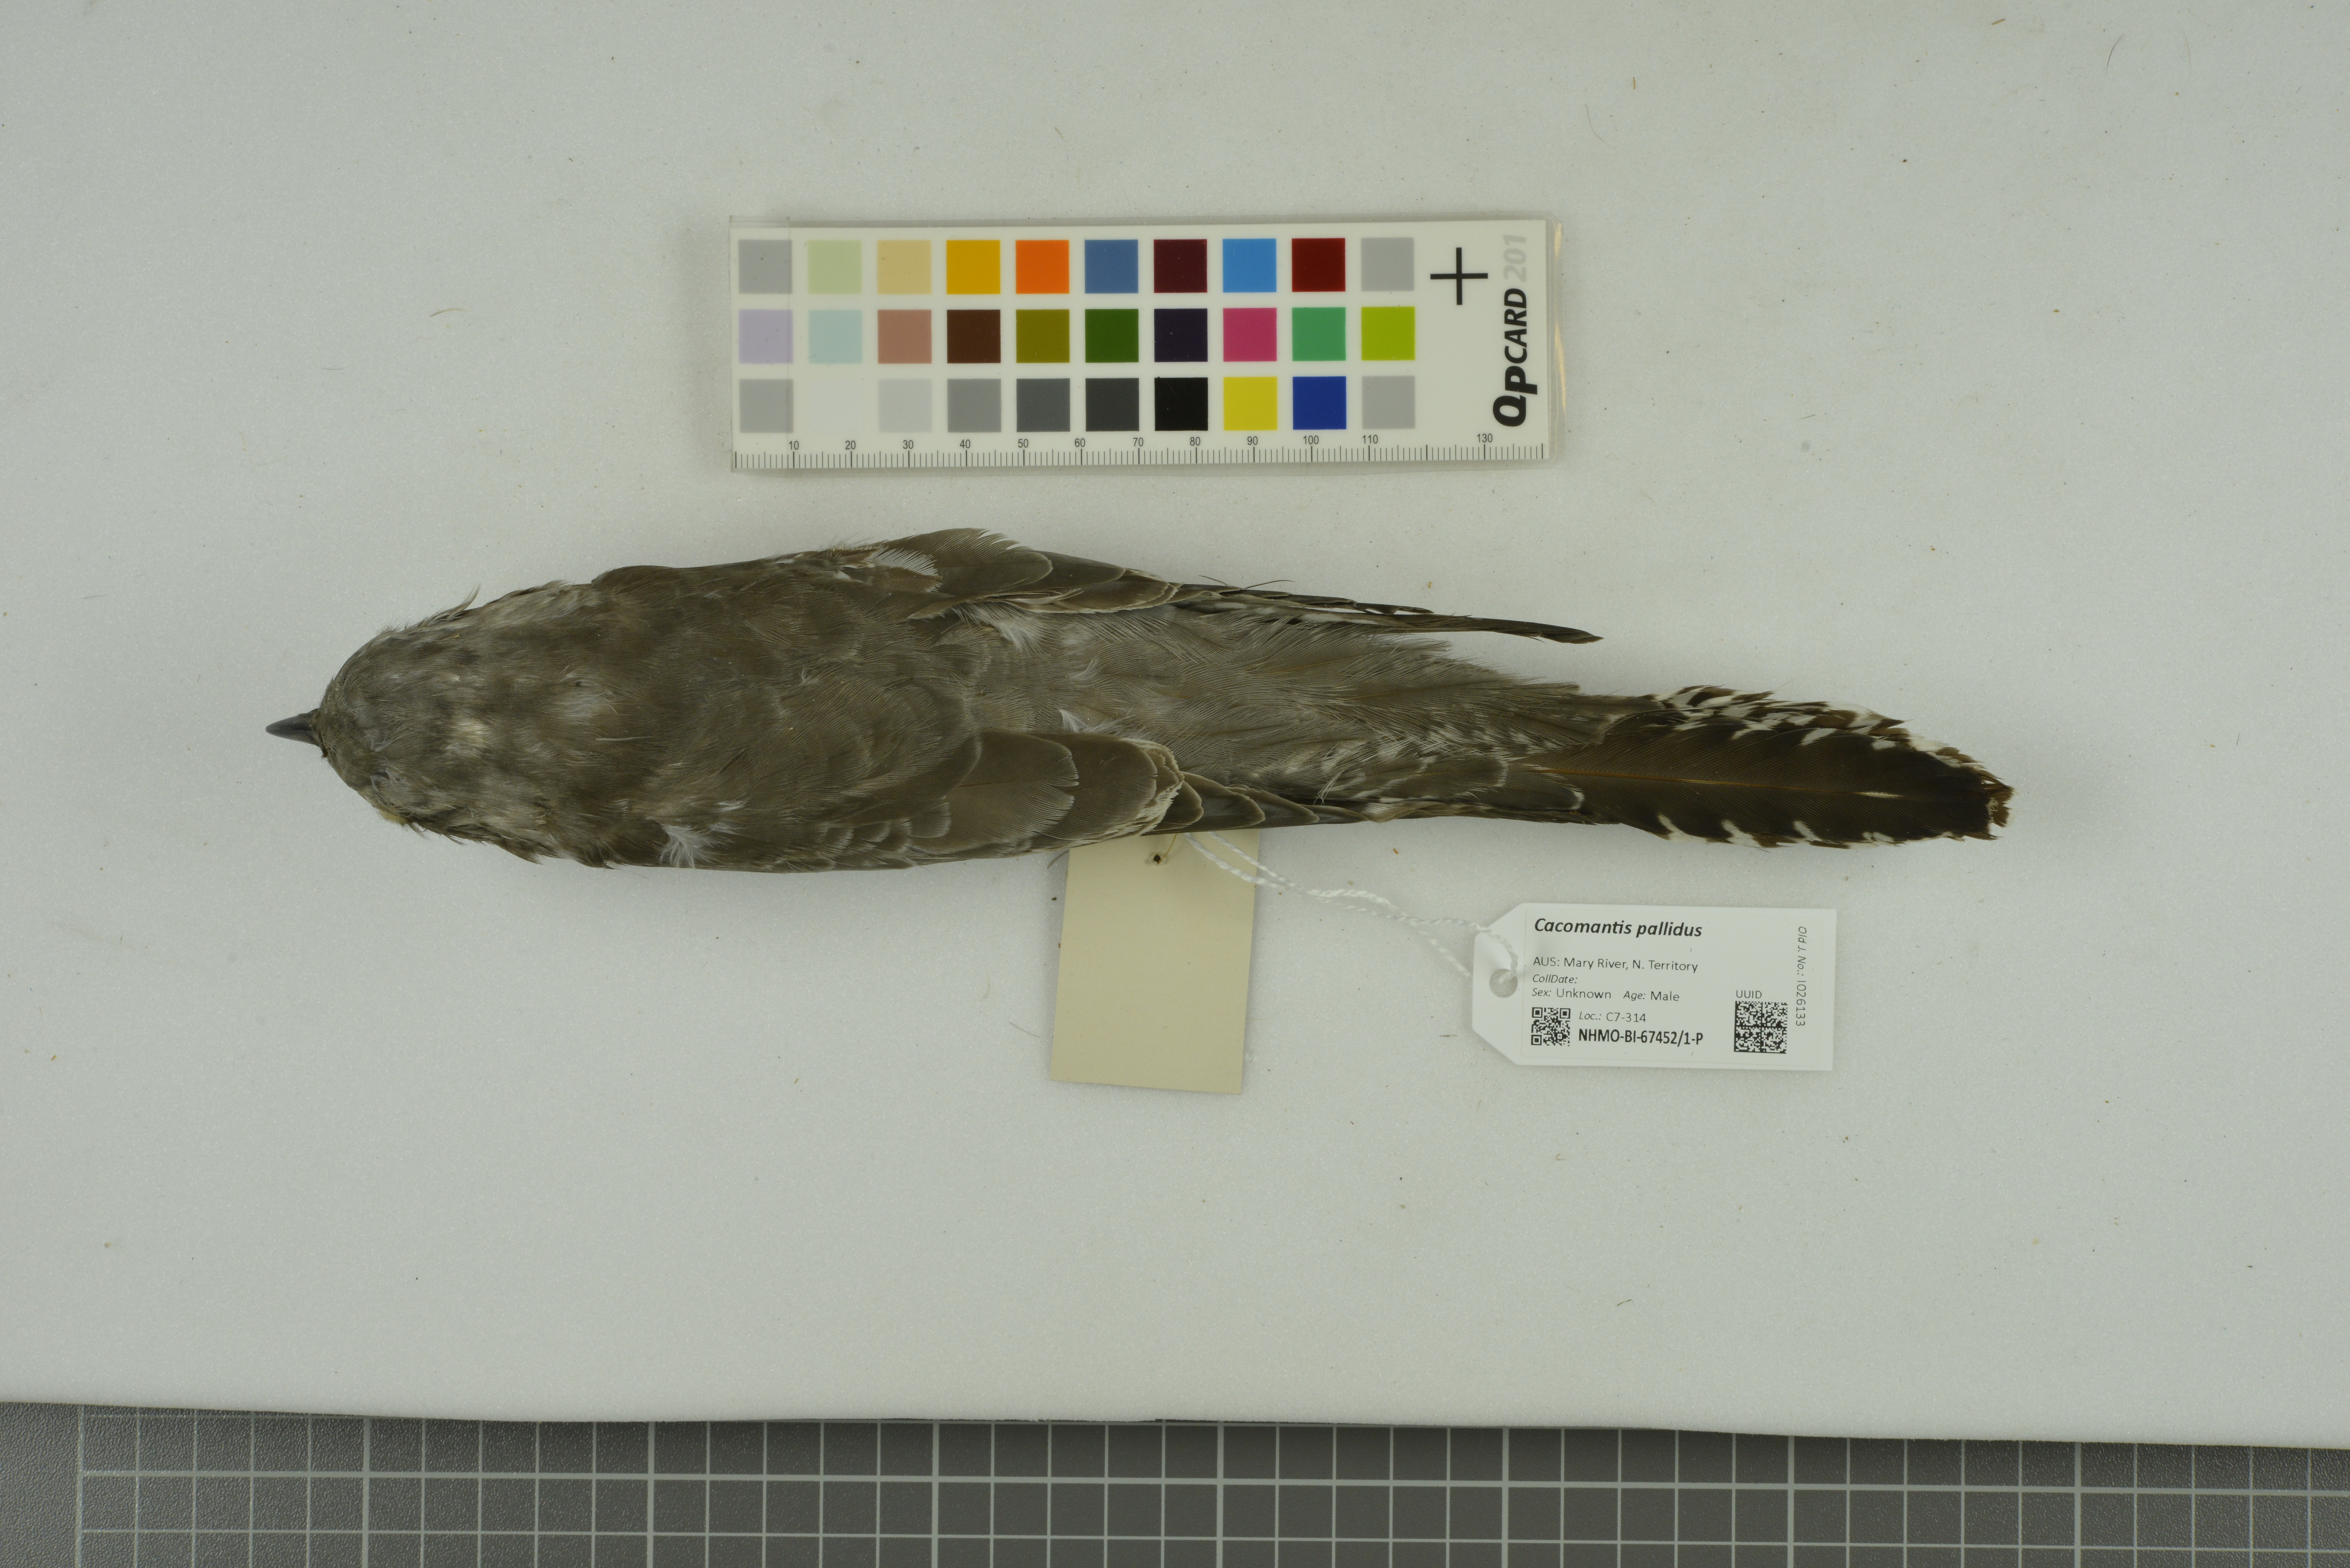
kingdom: Animalia
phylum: Chordata
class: Aves
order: Cuculiformes
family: Cuculidae
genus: Cuculus
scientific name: Cuculus pallidus
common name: Pallid cuckoo
